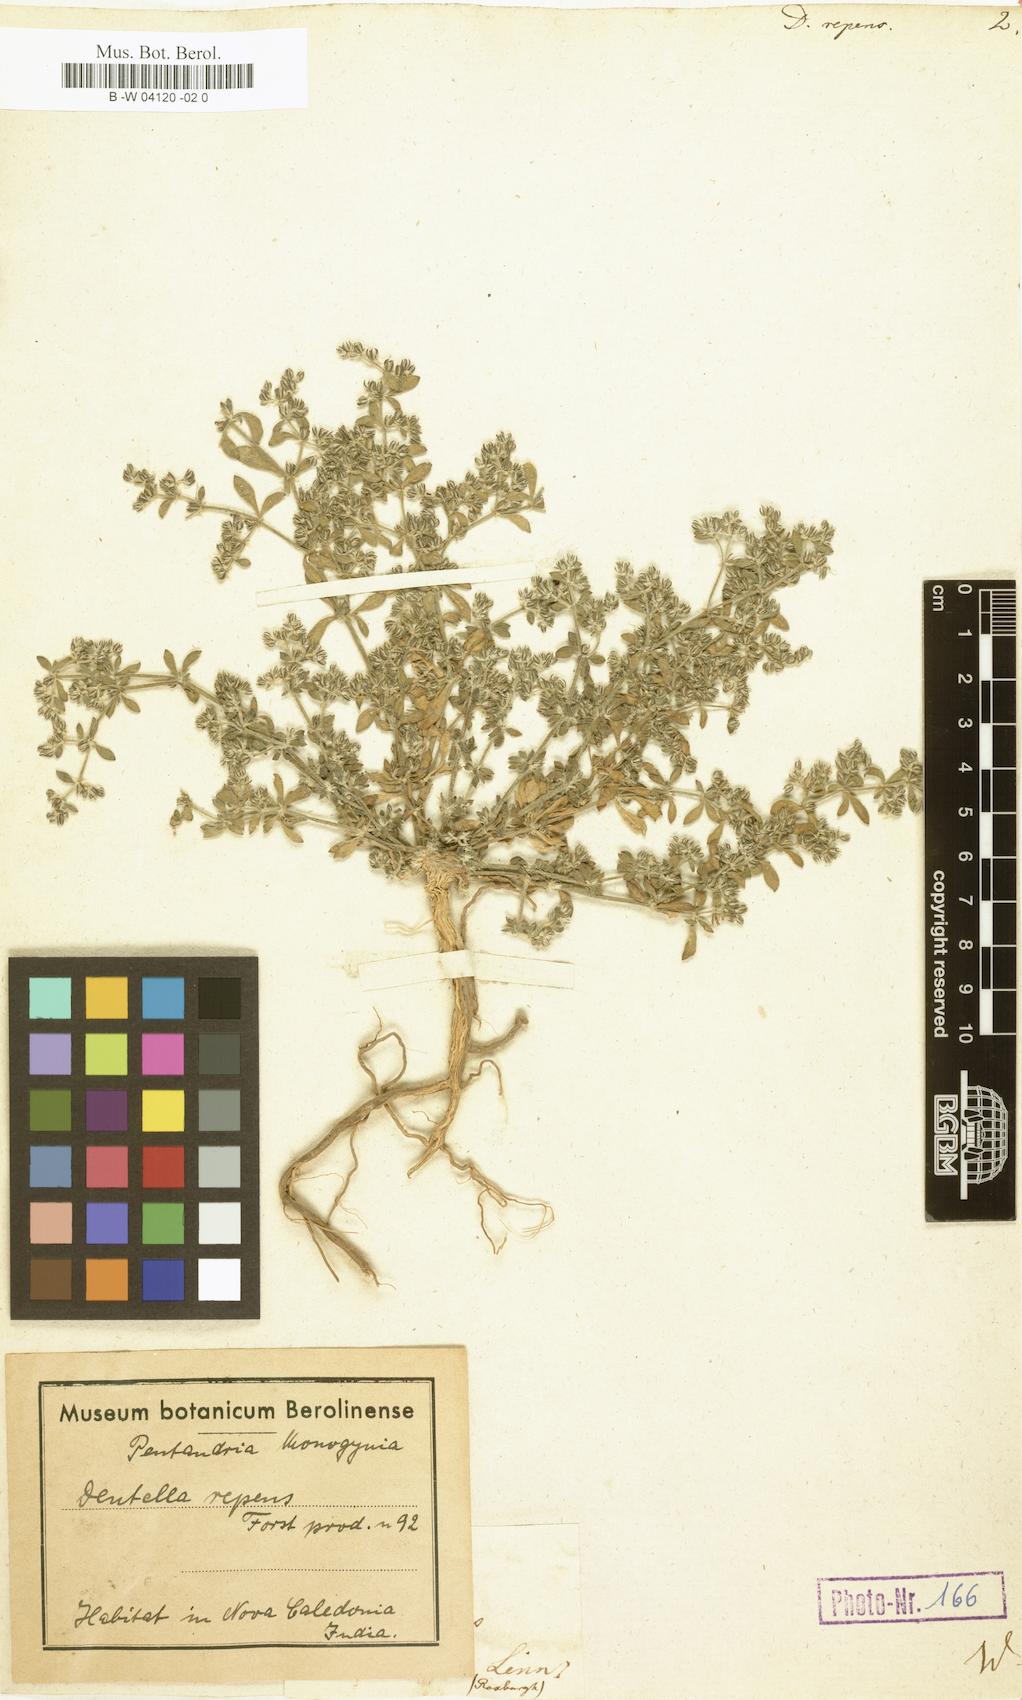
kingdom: Plantae
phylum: Tracheophyta
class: Magnoliopsida
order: Gentianales
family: Rubiaceae
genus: Dentella
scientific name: Dentella repens
